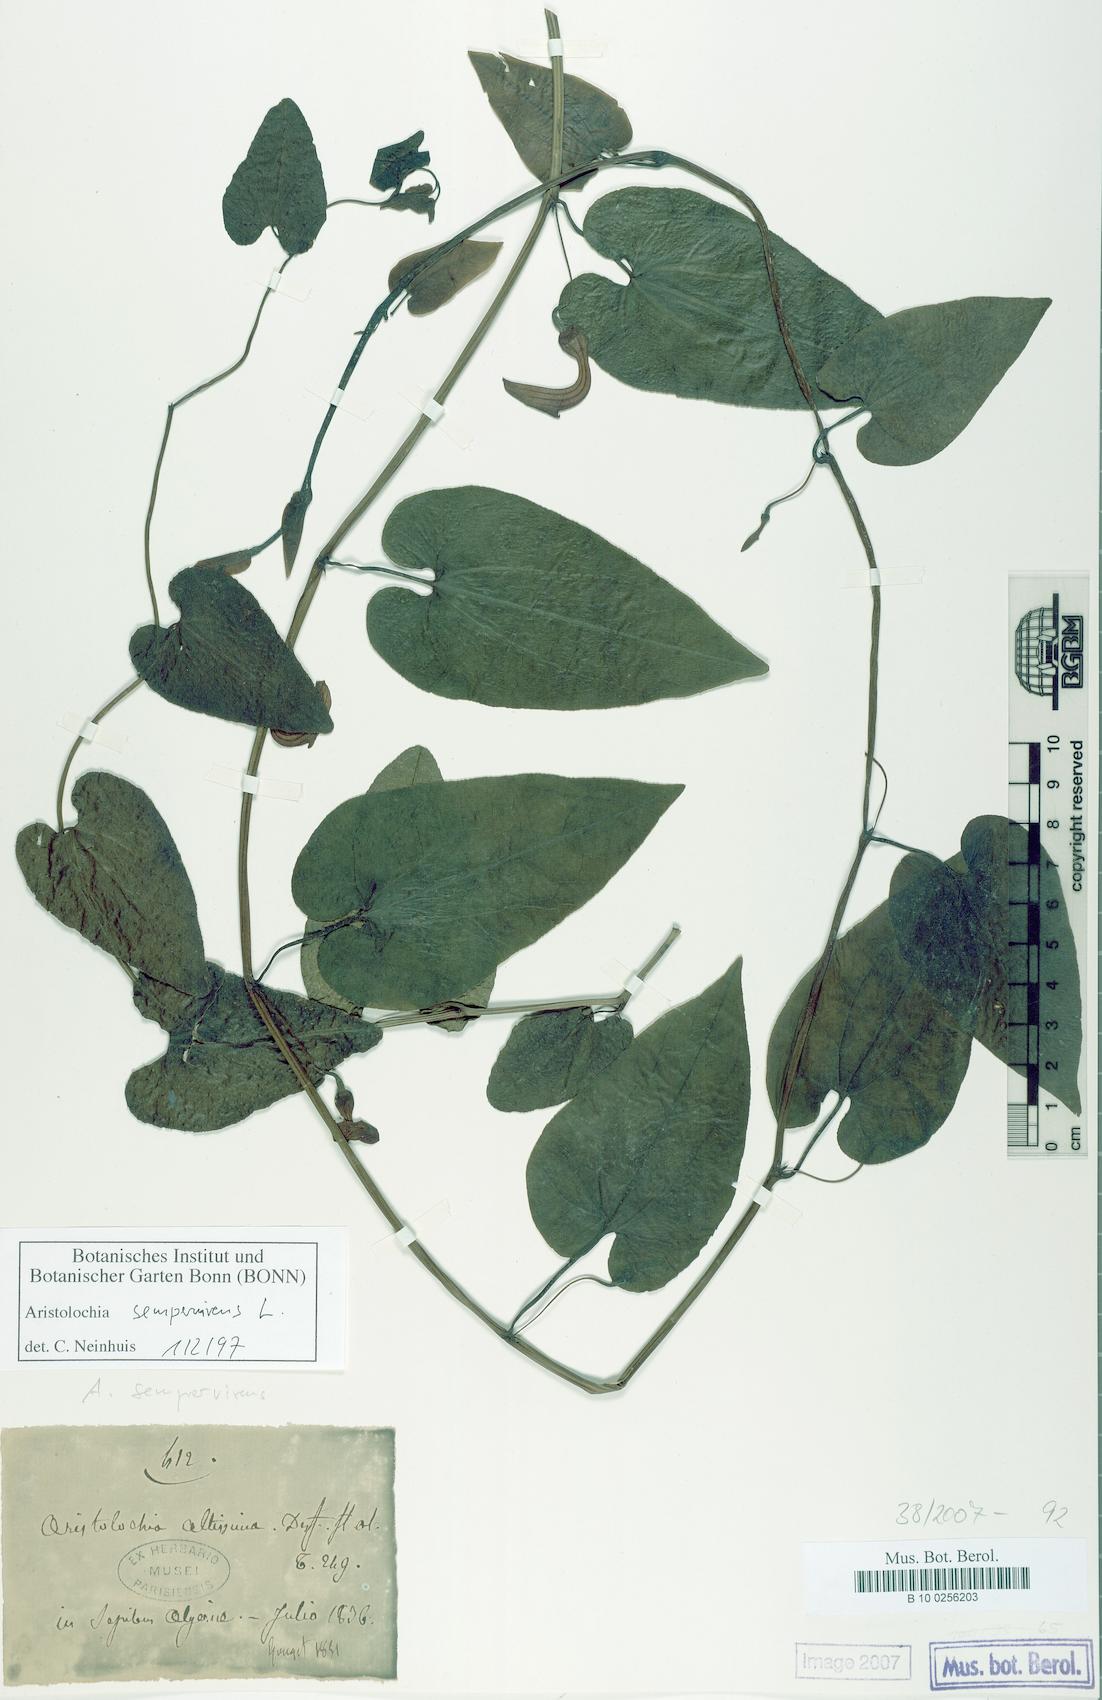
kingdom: Plantae
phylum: Tracheophyta
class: Magnoliopsida
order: Piperales
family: Aristolochiaceae
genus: Aristolochia
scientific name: Aristolochia sempervirens
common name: Long birthwort
